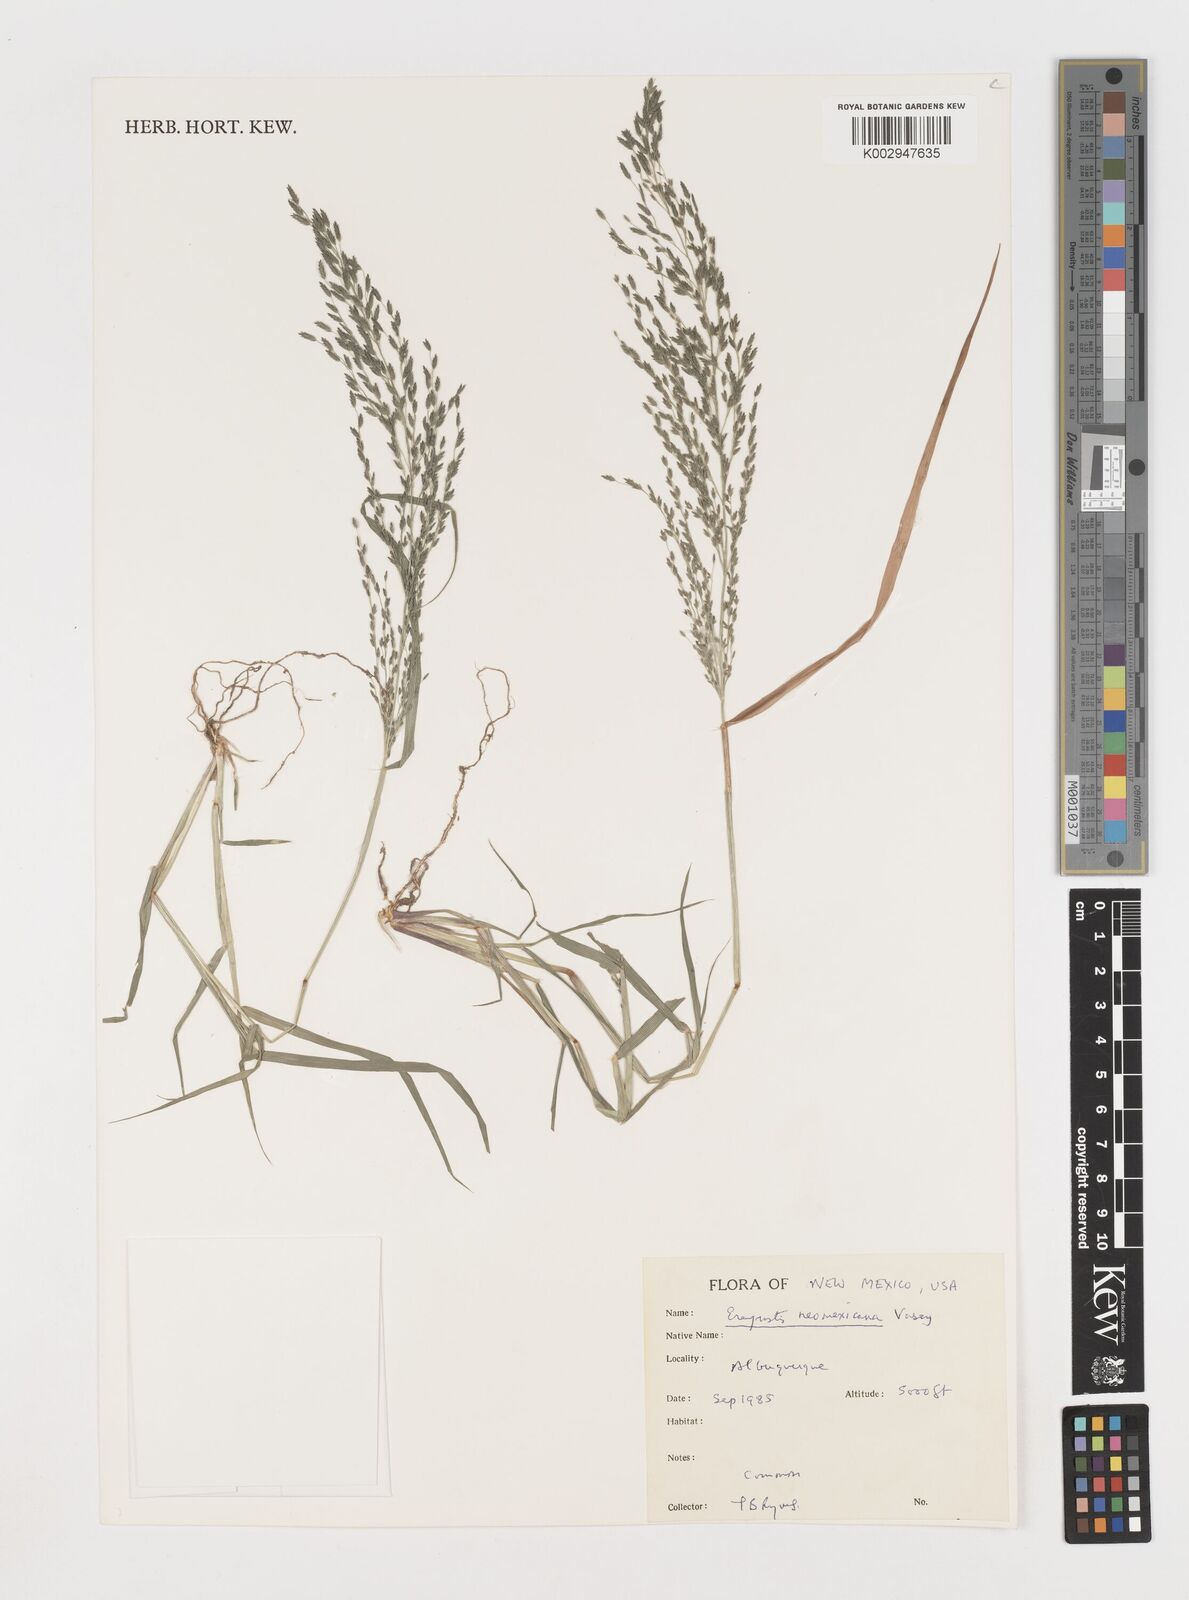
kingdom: Plantae
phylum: Tracheophyta
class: Liliopsida
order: Poales
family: Poaceae
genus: Eragrostis
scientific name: Eragrostis mexicana
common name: Mexican love grass
